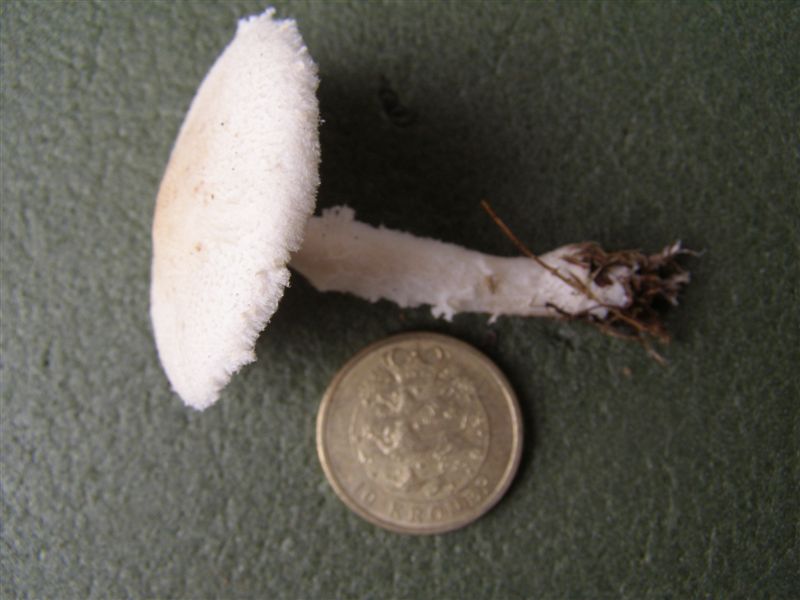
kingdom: Fungi
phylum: Basidiomycota
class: Agaricomycetes
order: Agaricales
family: Agaricaceae
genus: Lepiota
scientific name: Lepiota erminea
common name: hvid parasolhat
